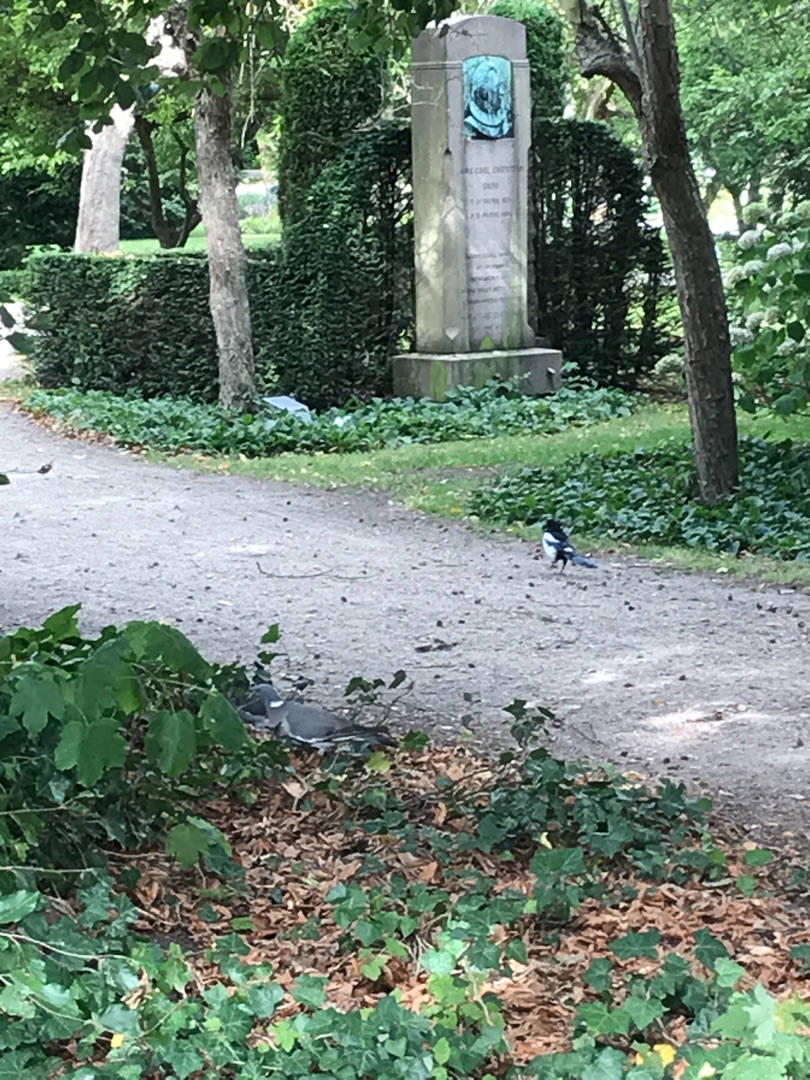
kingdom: Animalia
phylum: Chordata
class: Aves
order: Columbiformes
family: Columbidae
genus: Columba
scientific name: Columba palumbus
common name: Ringdue
